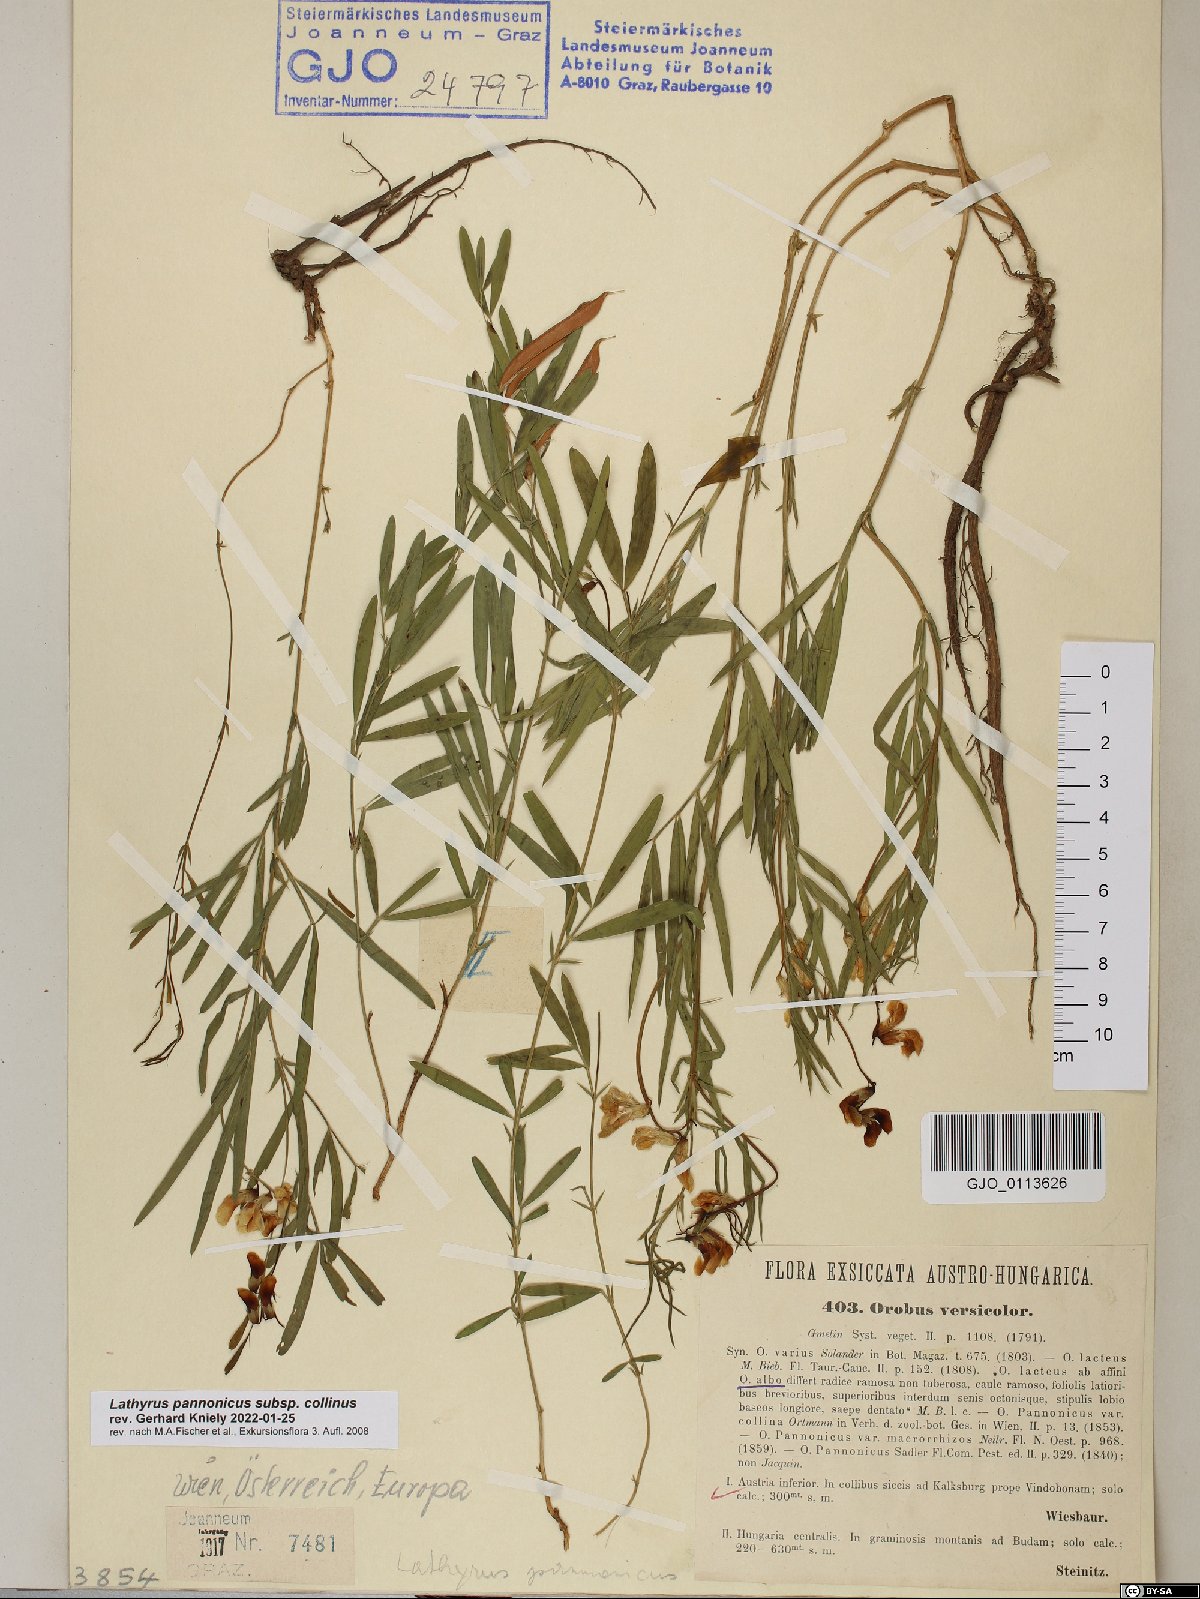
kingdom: Plantae
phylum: Tracheophyta
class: Magnoliopsida
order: Fabales
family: Fabaceae
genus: Lathyrus
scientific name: Lathyrus pannonicus
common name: Pea
